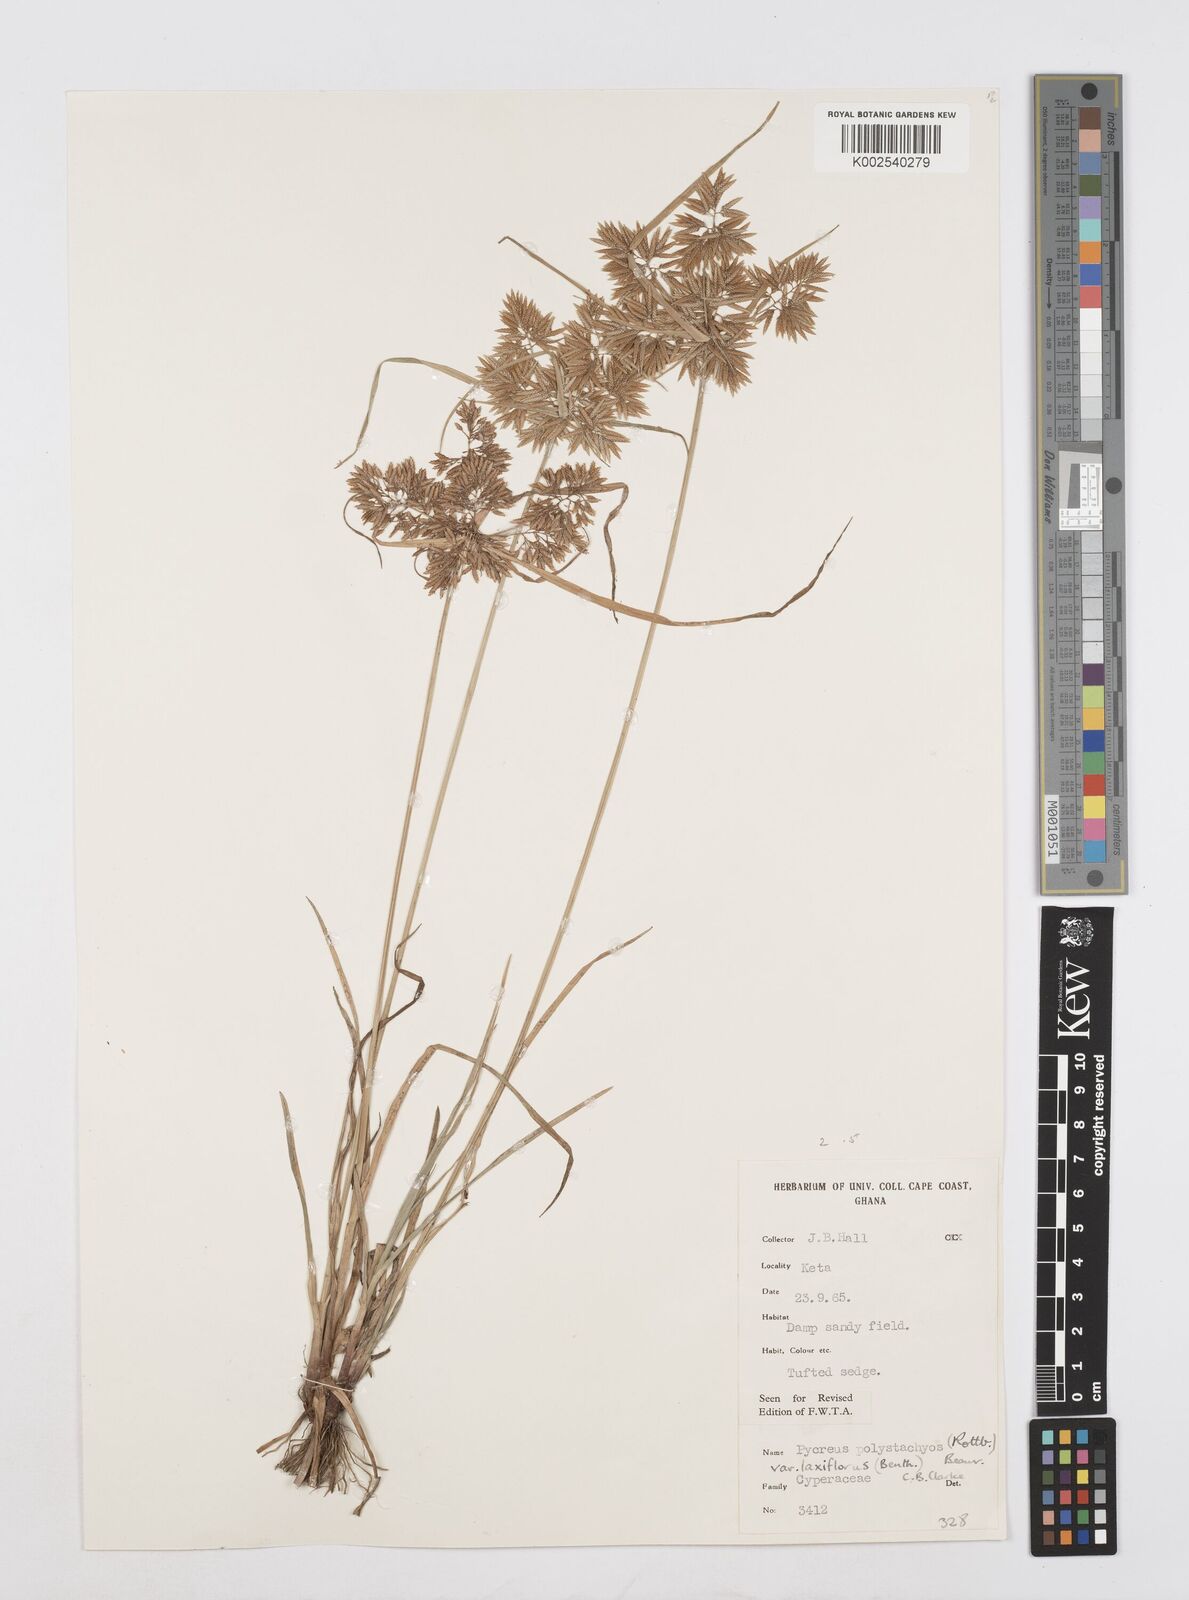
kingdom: Plantae
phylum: Tracheophyta
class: Liliopsida
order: Poales
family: Cyperaceae
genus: Cyperus
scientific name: Cyperus polystachyos
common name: Bunchy flat sedge
